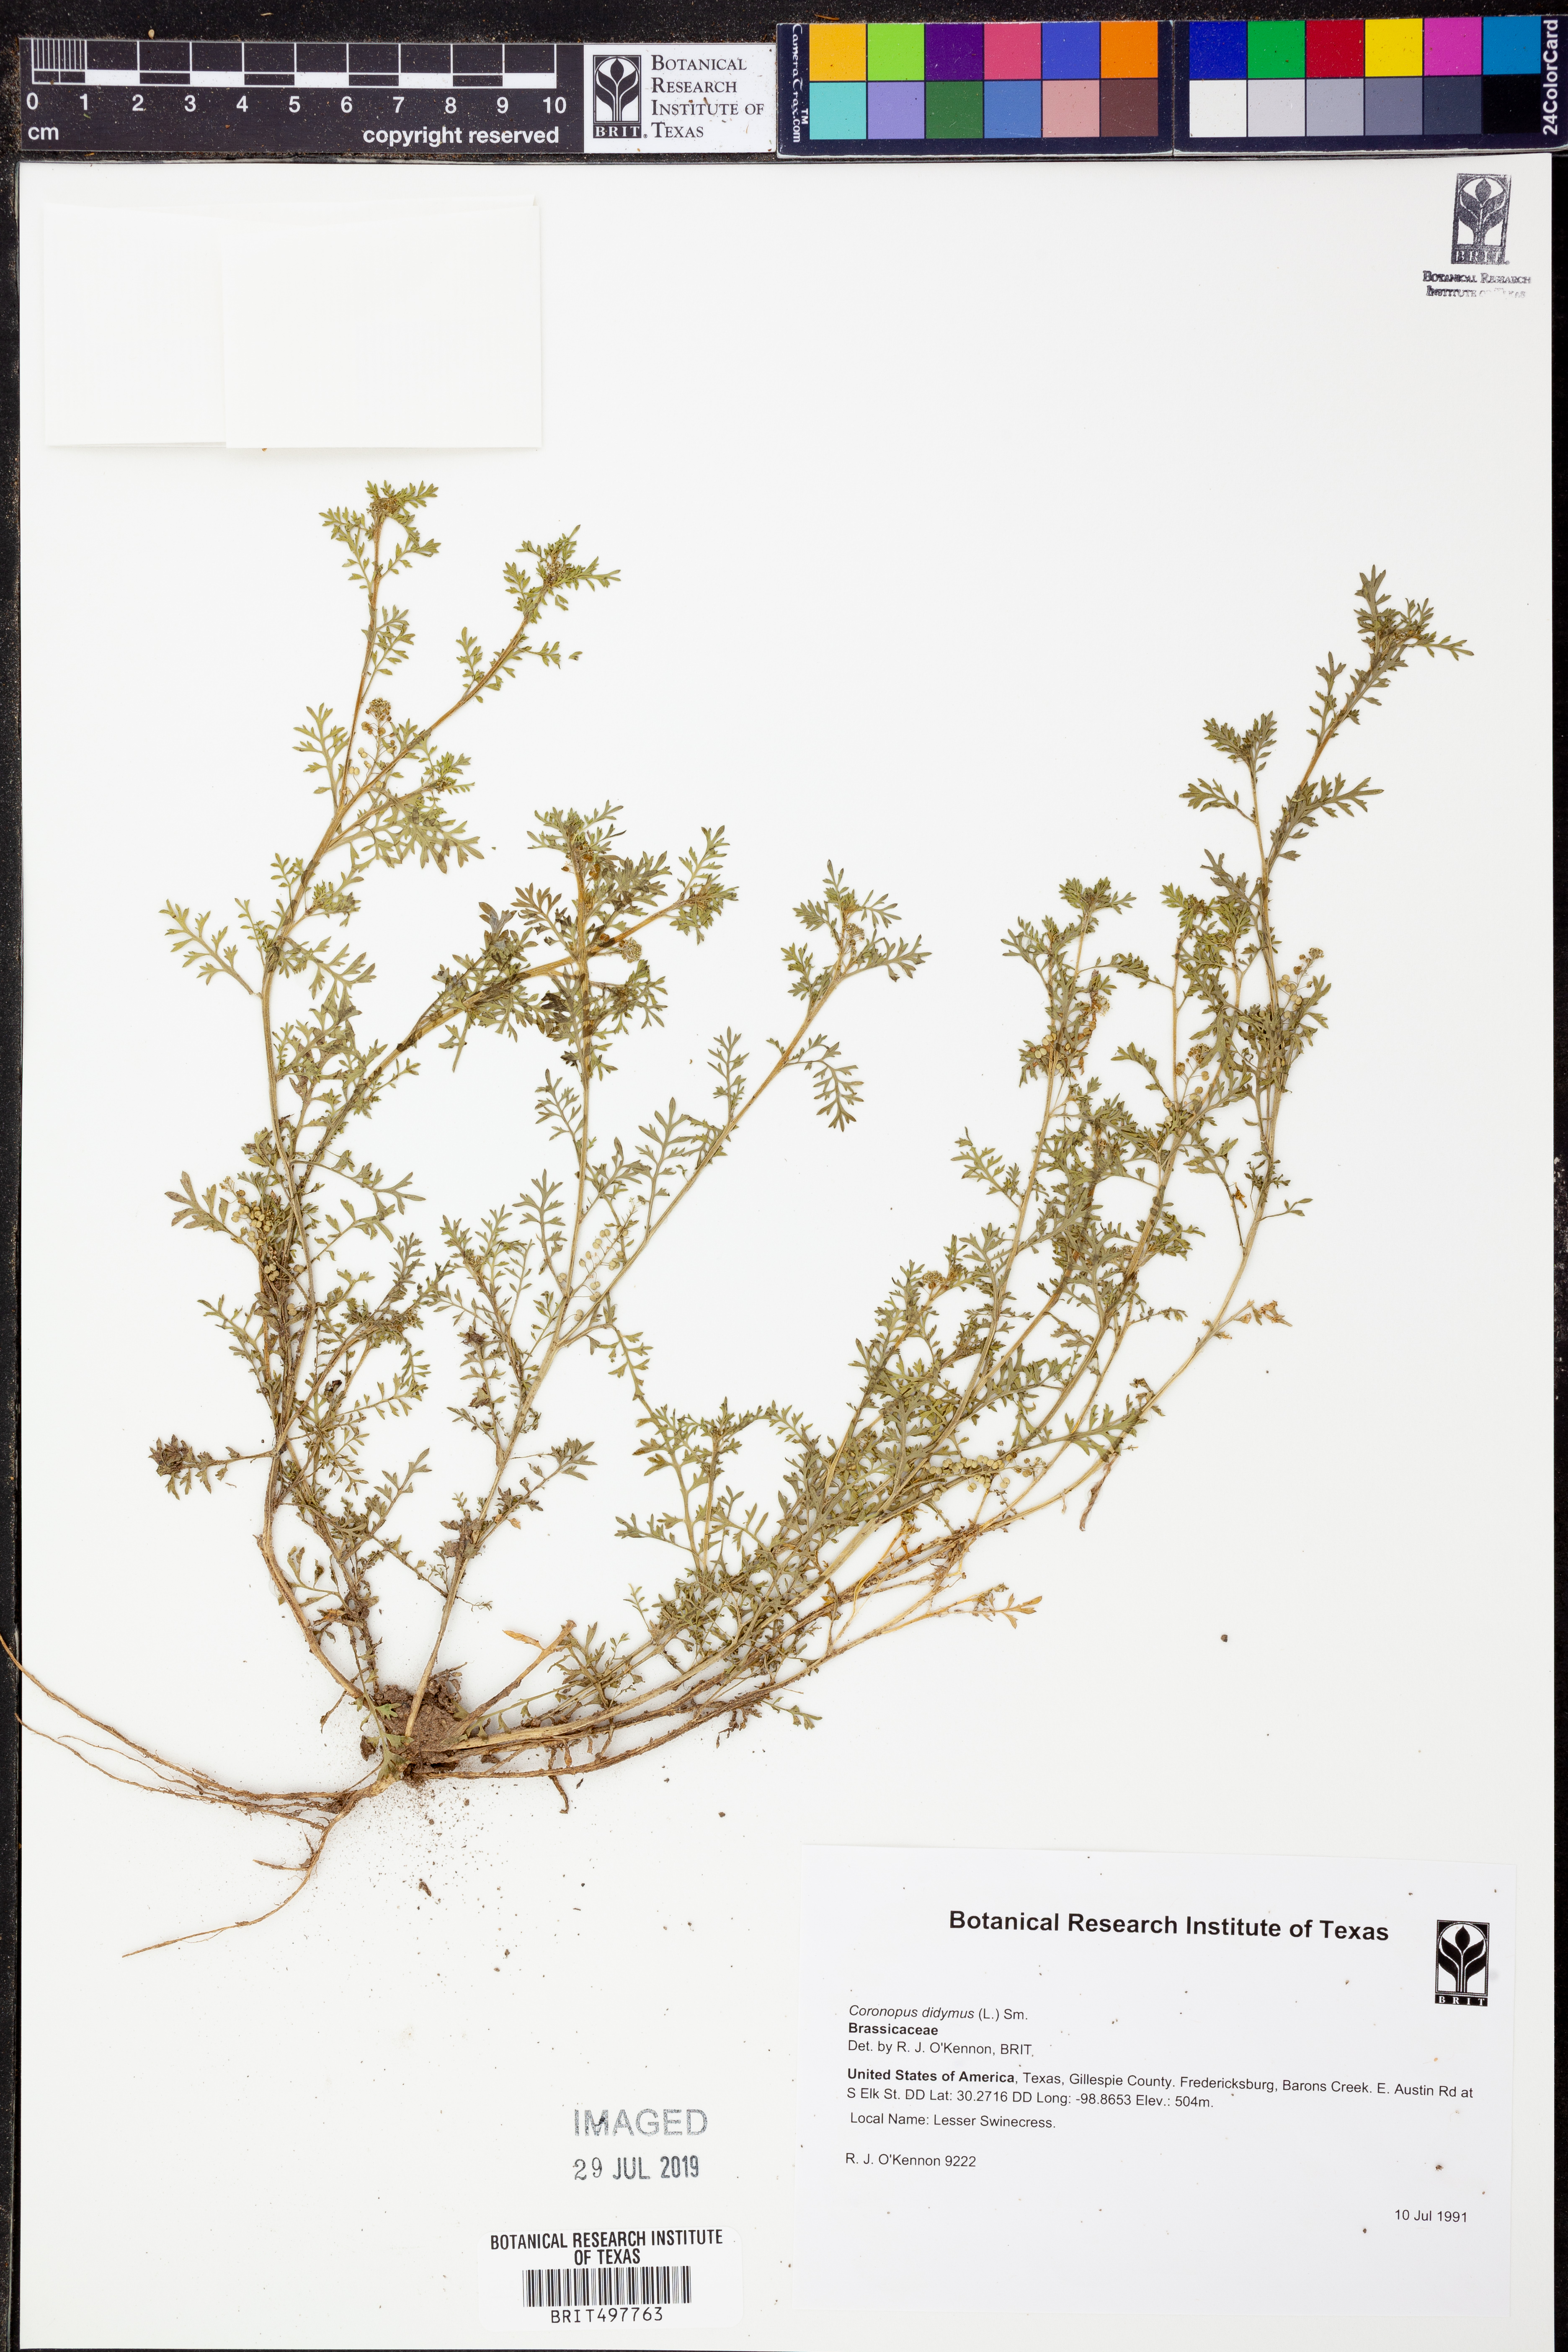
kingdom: Plantae
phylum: Tracheophyta
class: Magnoliopsida
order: Brassicales
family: Brassicaceae
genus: Lepidium
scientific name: Lepidium didymum
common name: Lesser swinecress
